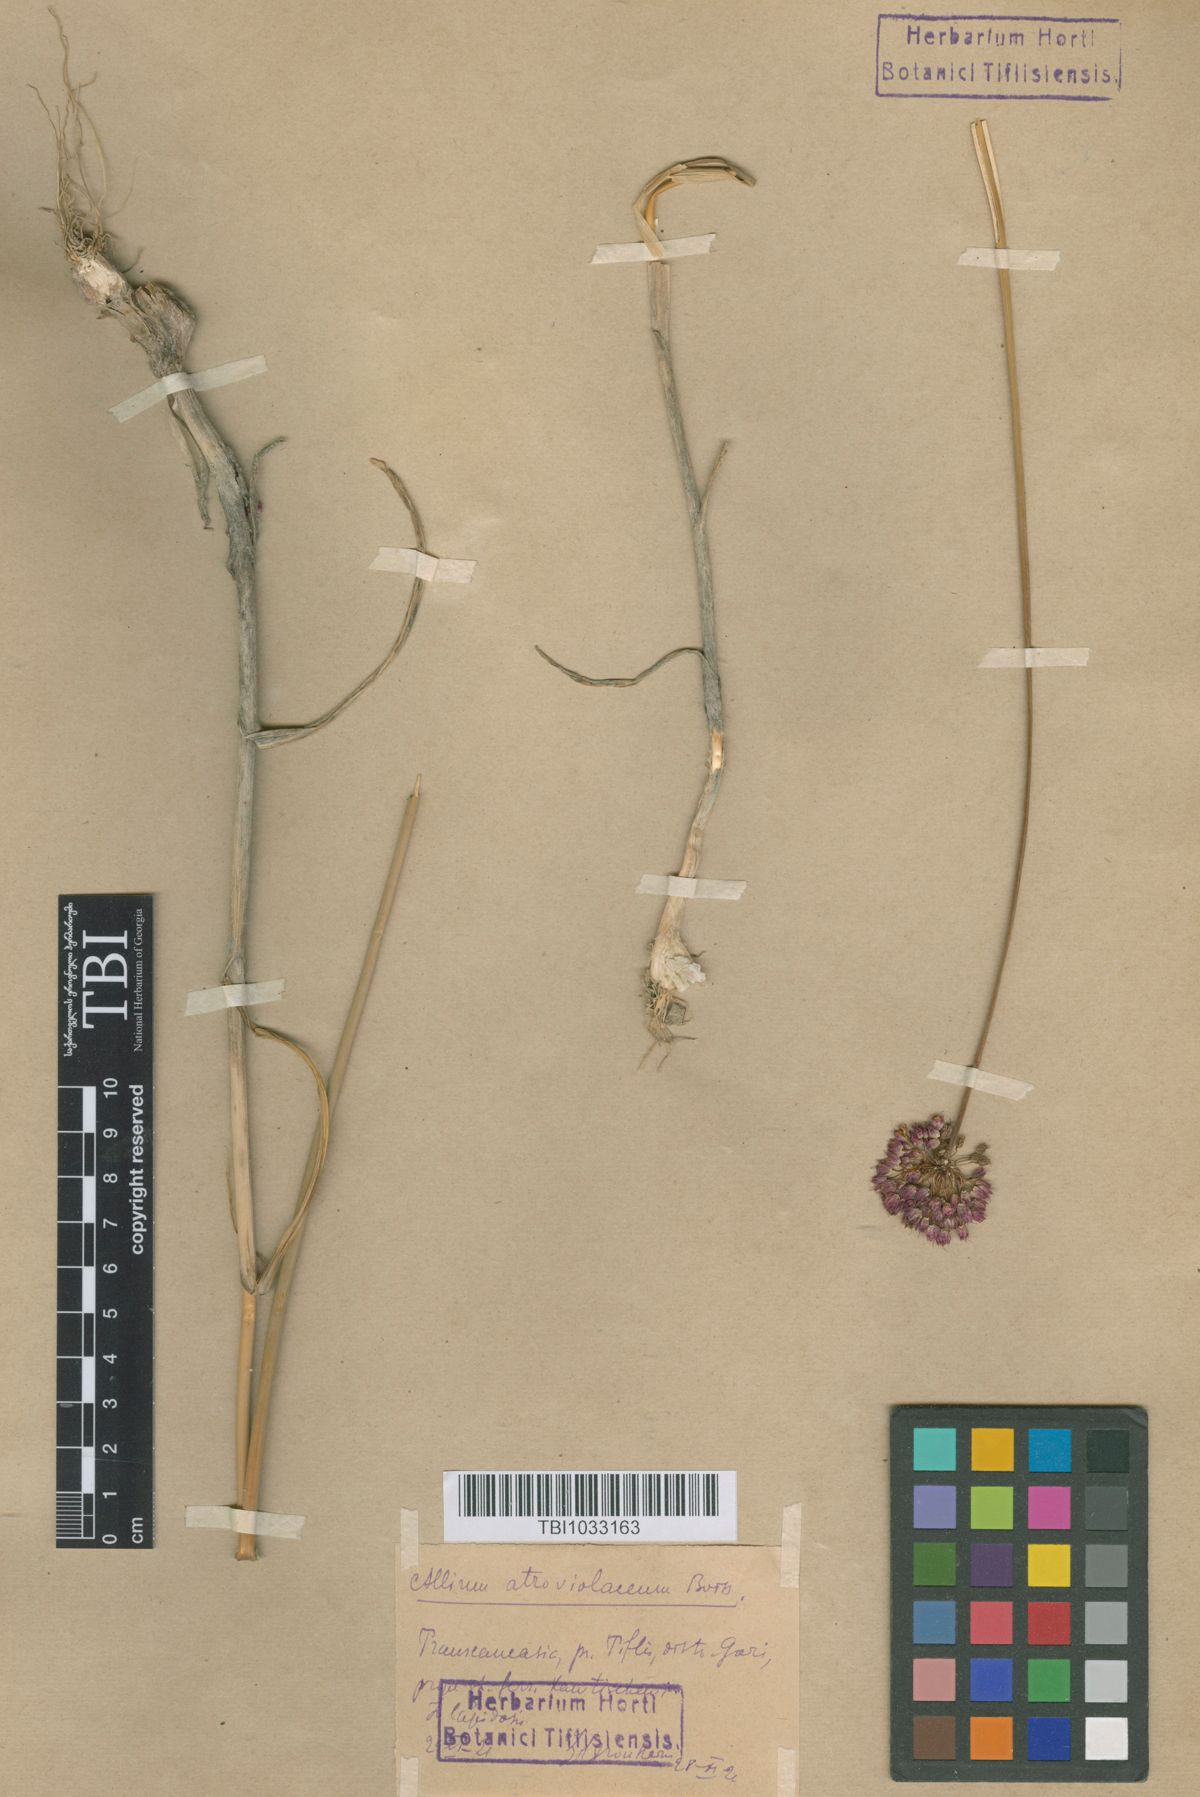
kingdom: Plantae
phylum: Tracheophyta
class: Liliopsida
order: Asparagales
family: Amaryllidaceae
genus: Allium
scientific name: Allium atroviolaceum
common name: Broadleaf wild leek
